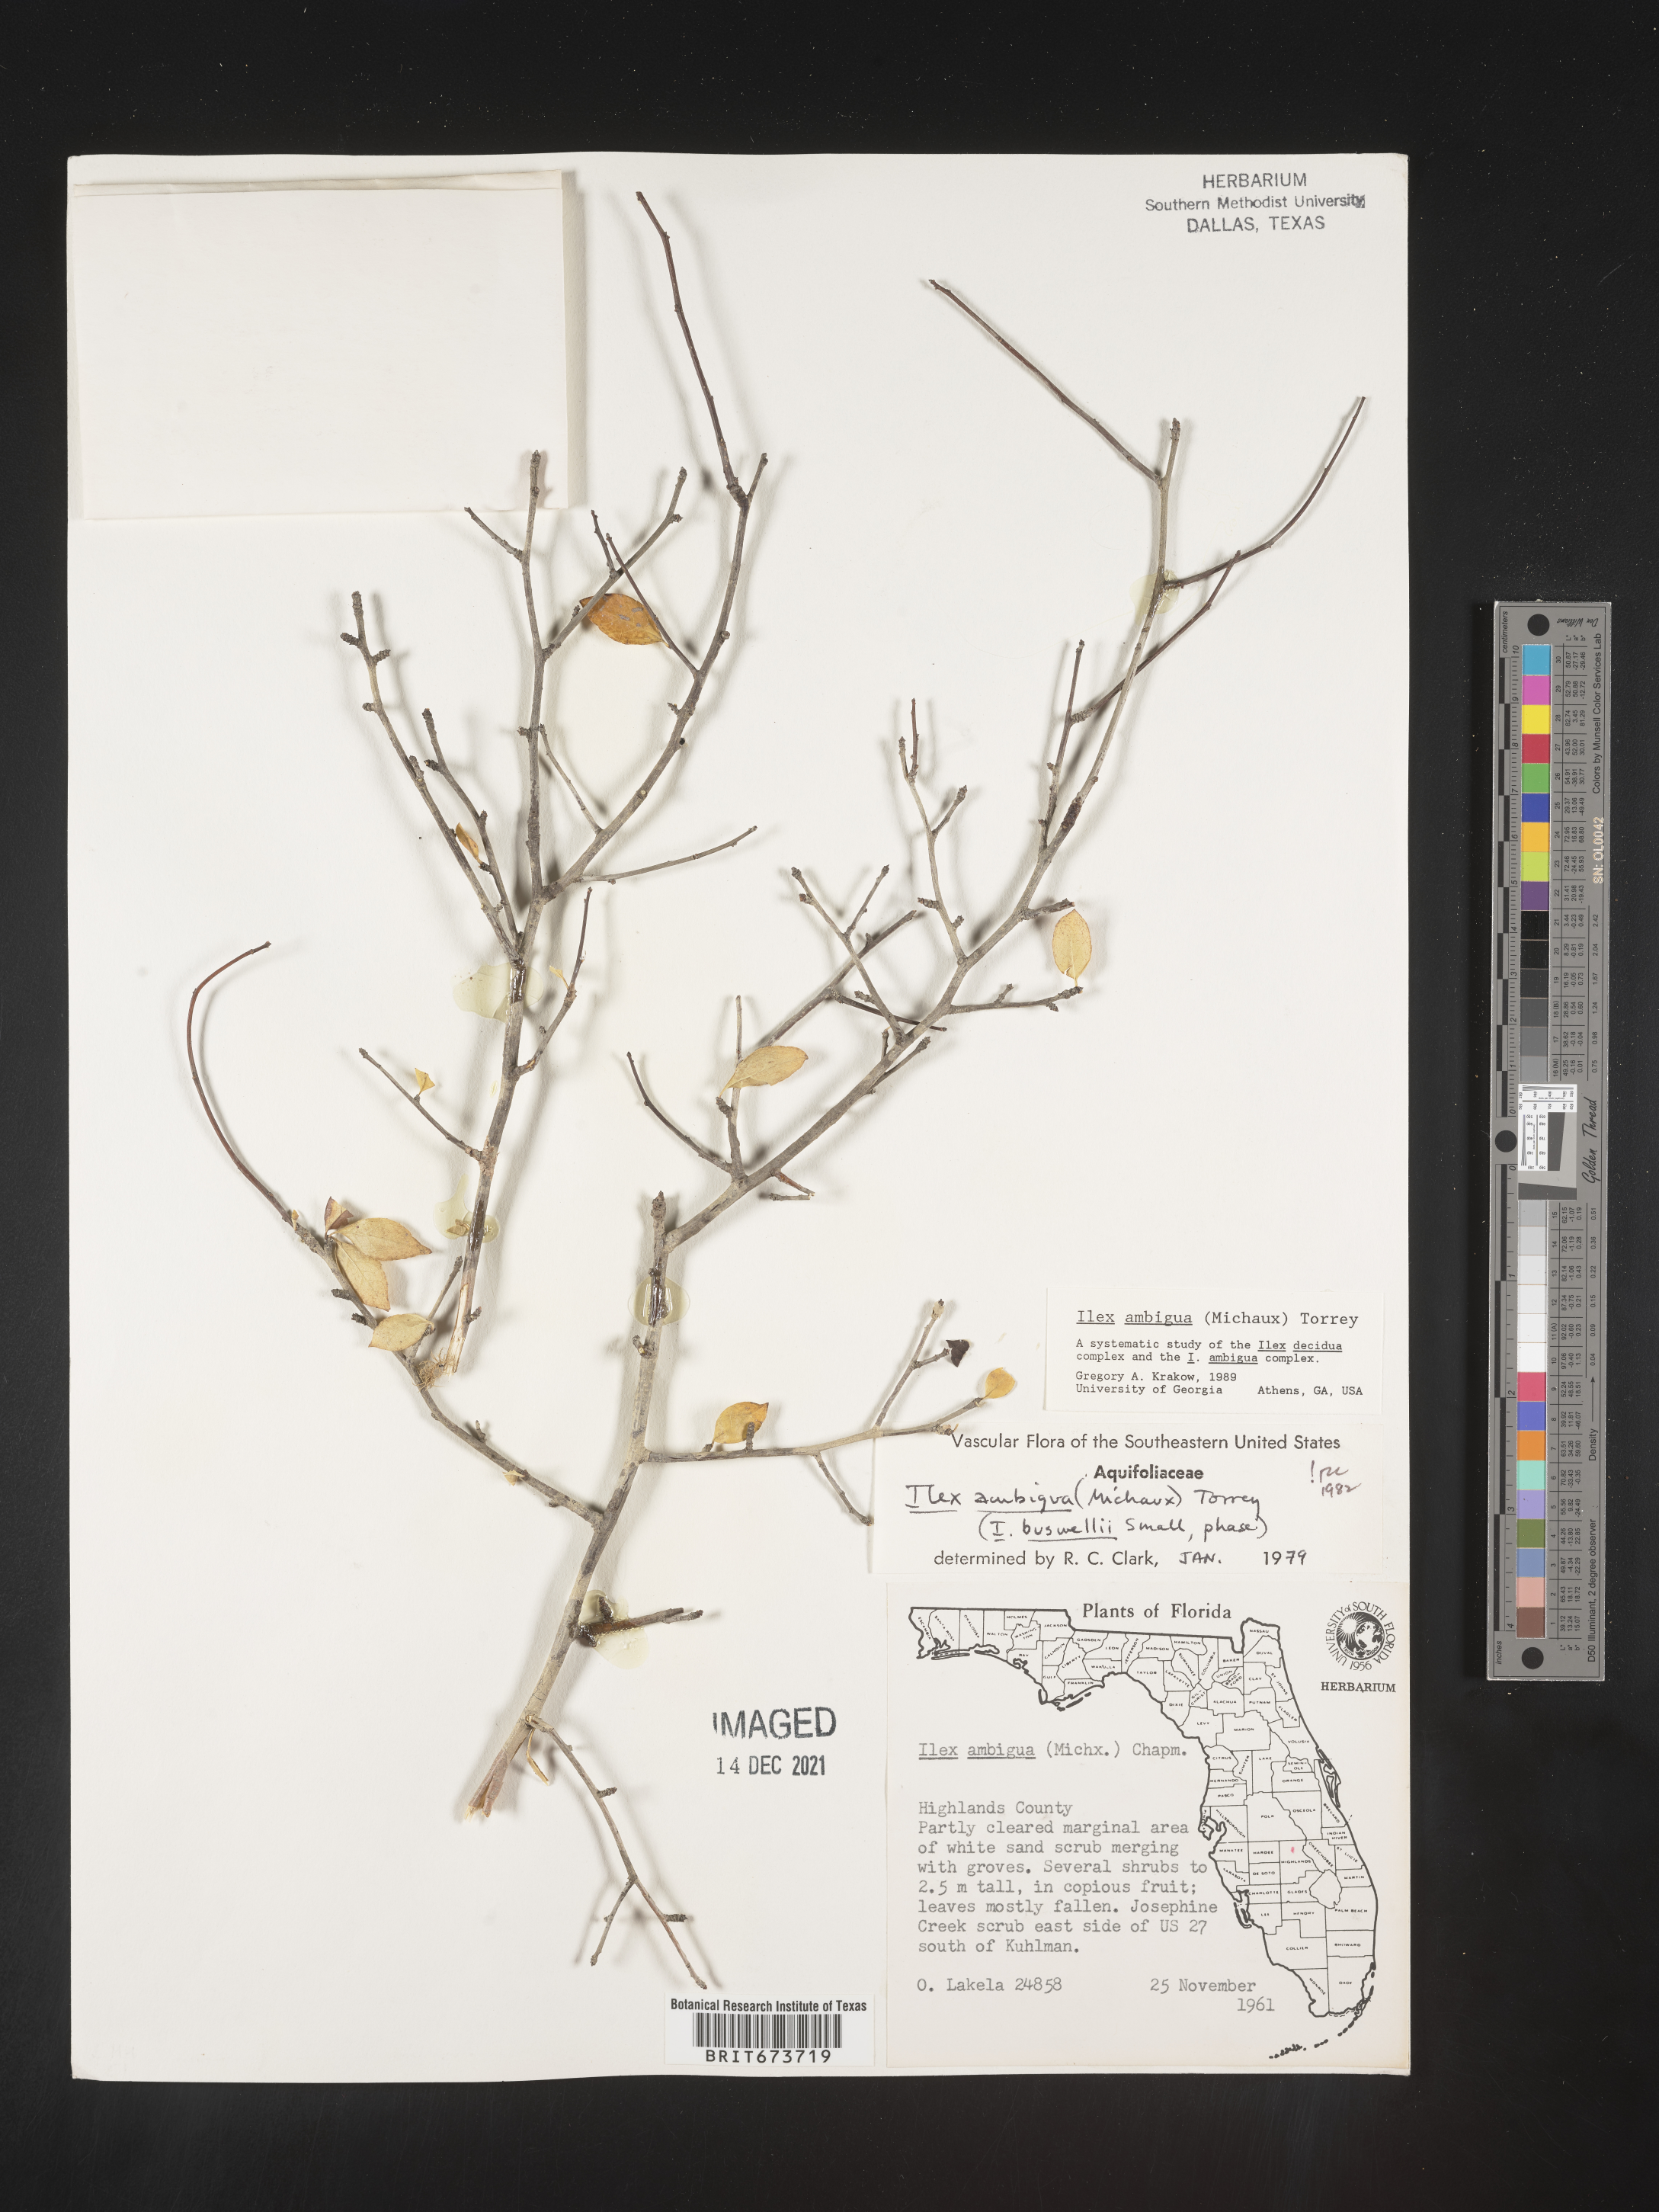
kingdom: Plantae
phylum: Tracheophyta
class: Magnoliopsida
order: Aquifoliales
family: Aquifoliaceae
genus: Ilex
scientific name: Ilex ambigua
